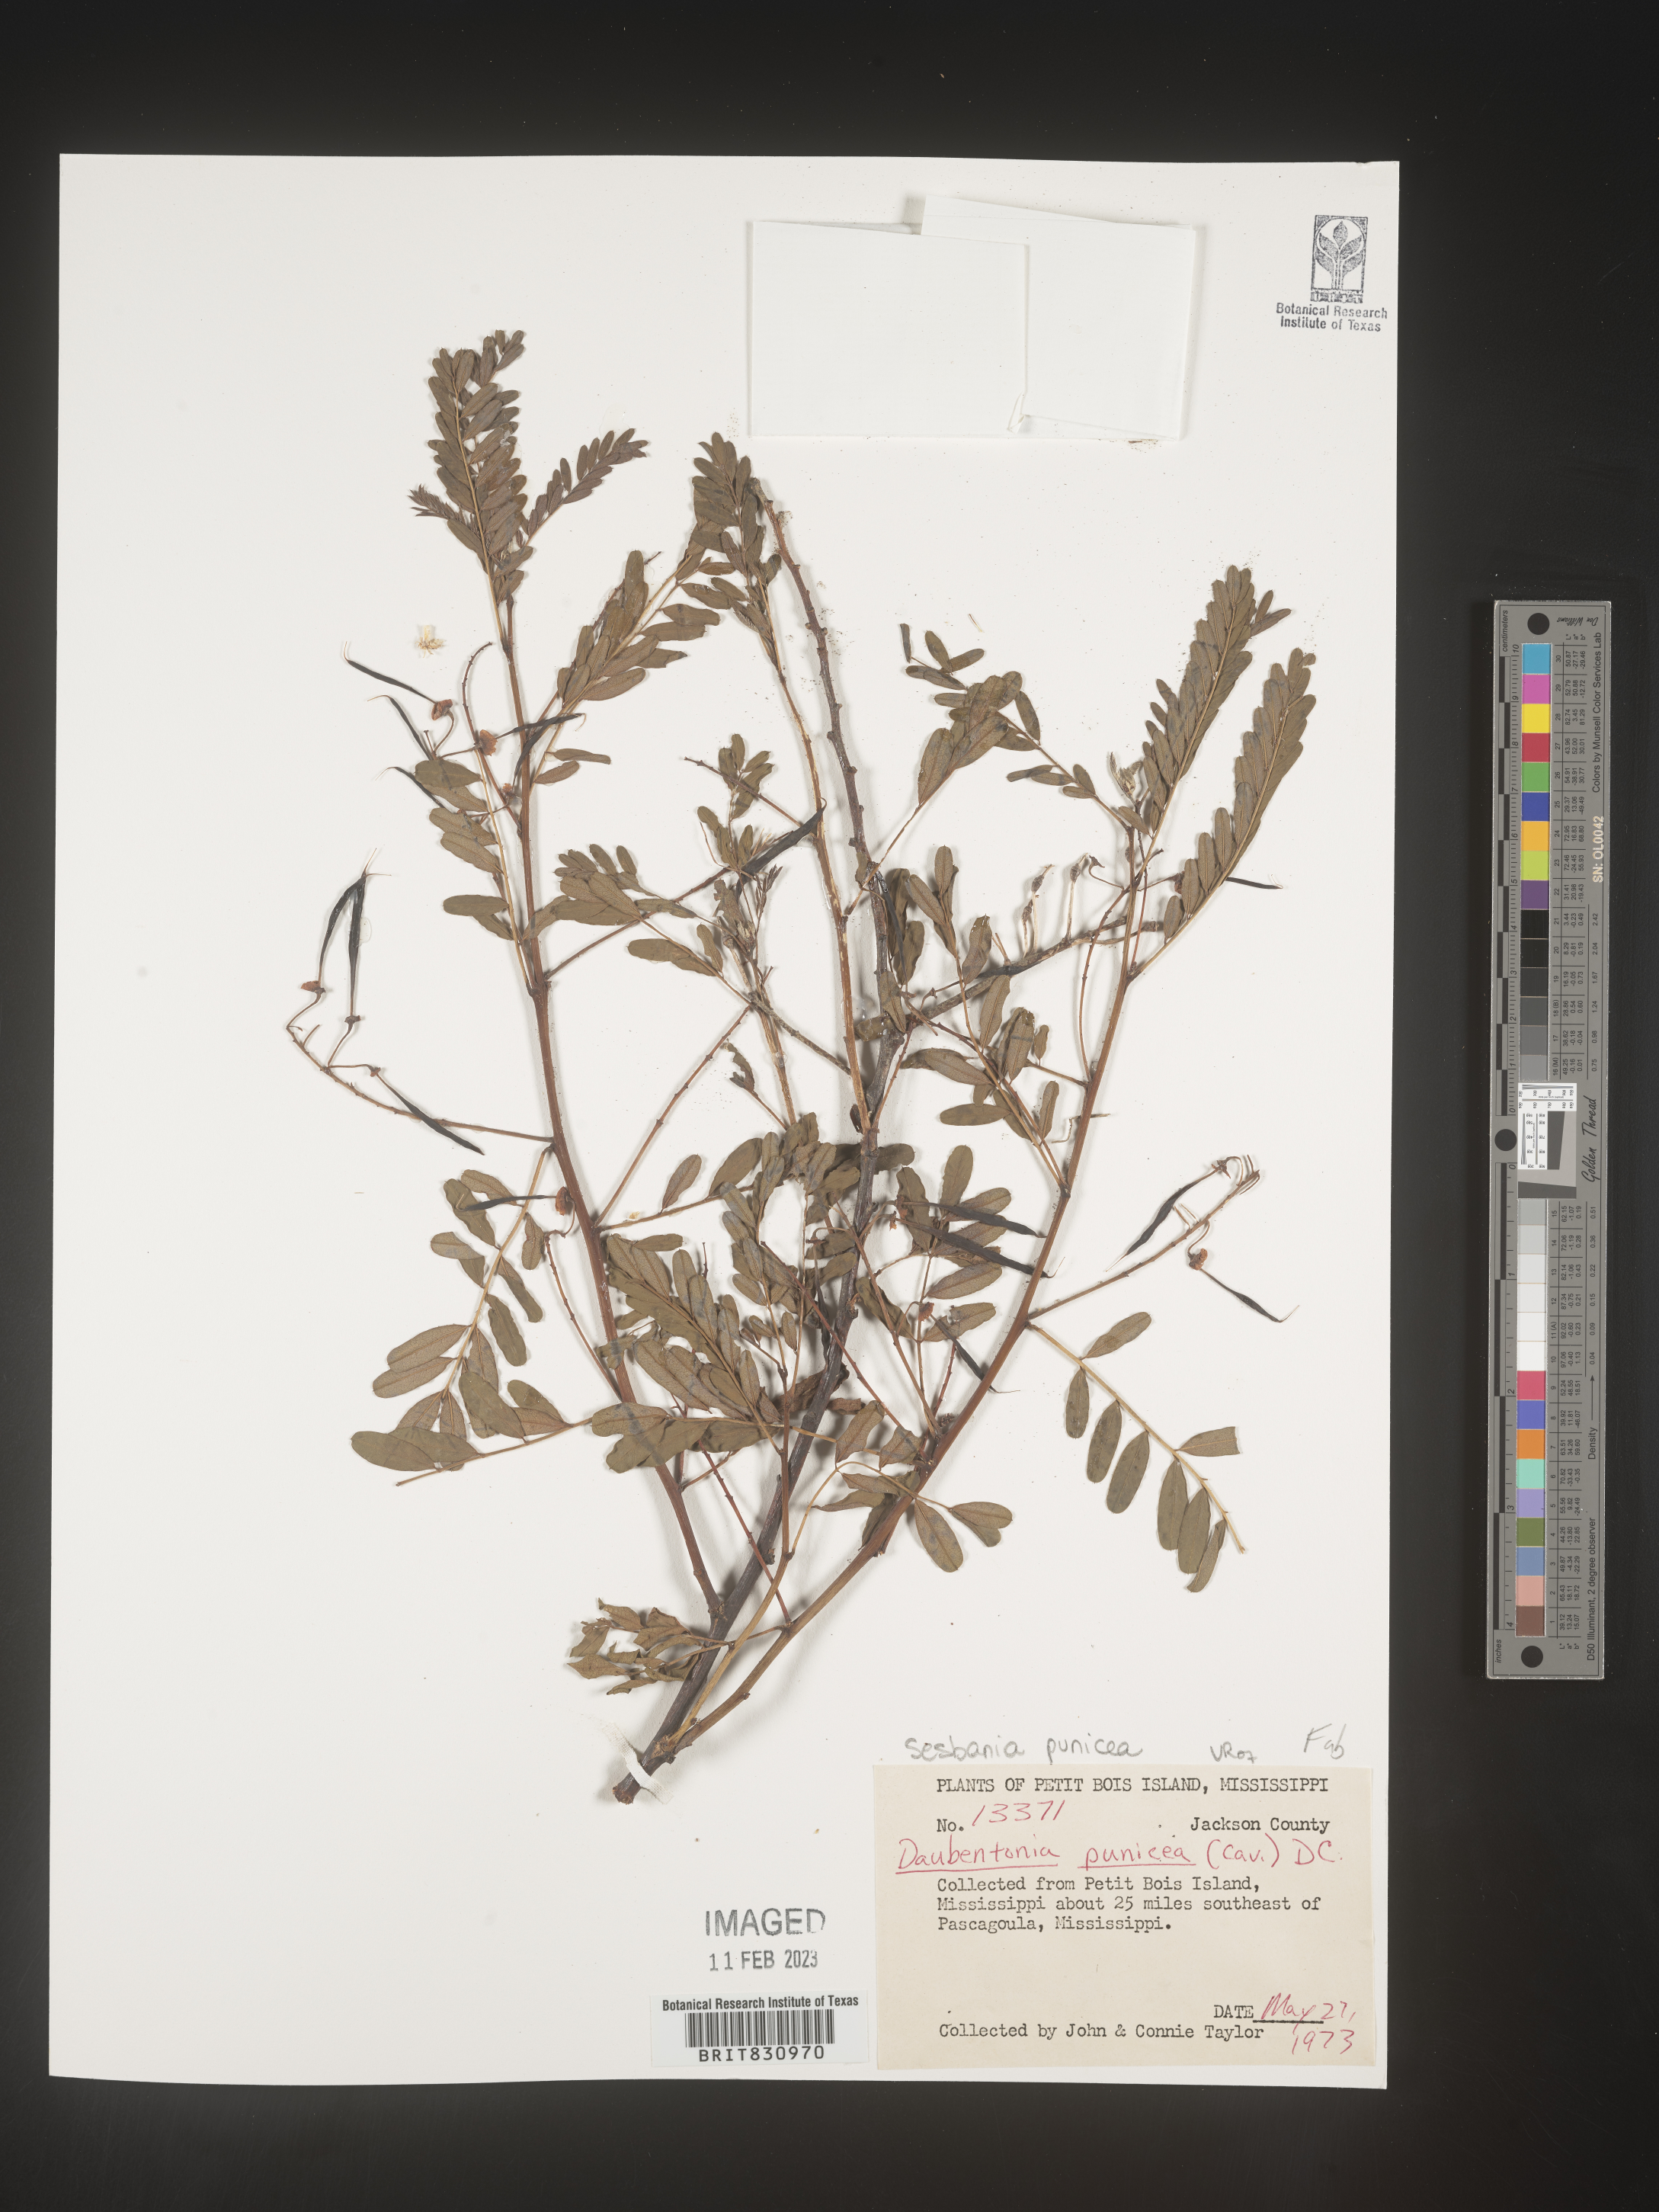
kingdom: Plantae
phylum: Tracheophyta
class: Magnoliopsida
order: Fabales
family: Fabaceae
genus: Sesbania
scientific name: Sesbania punicea
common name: Rattlebox
